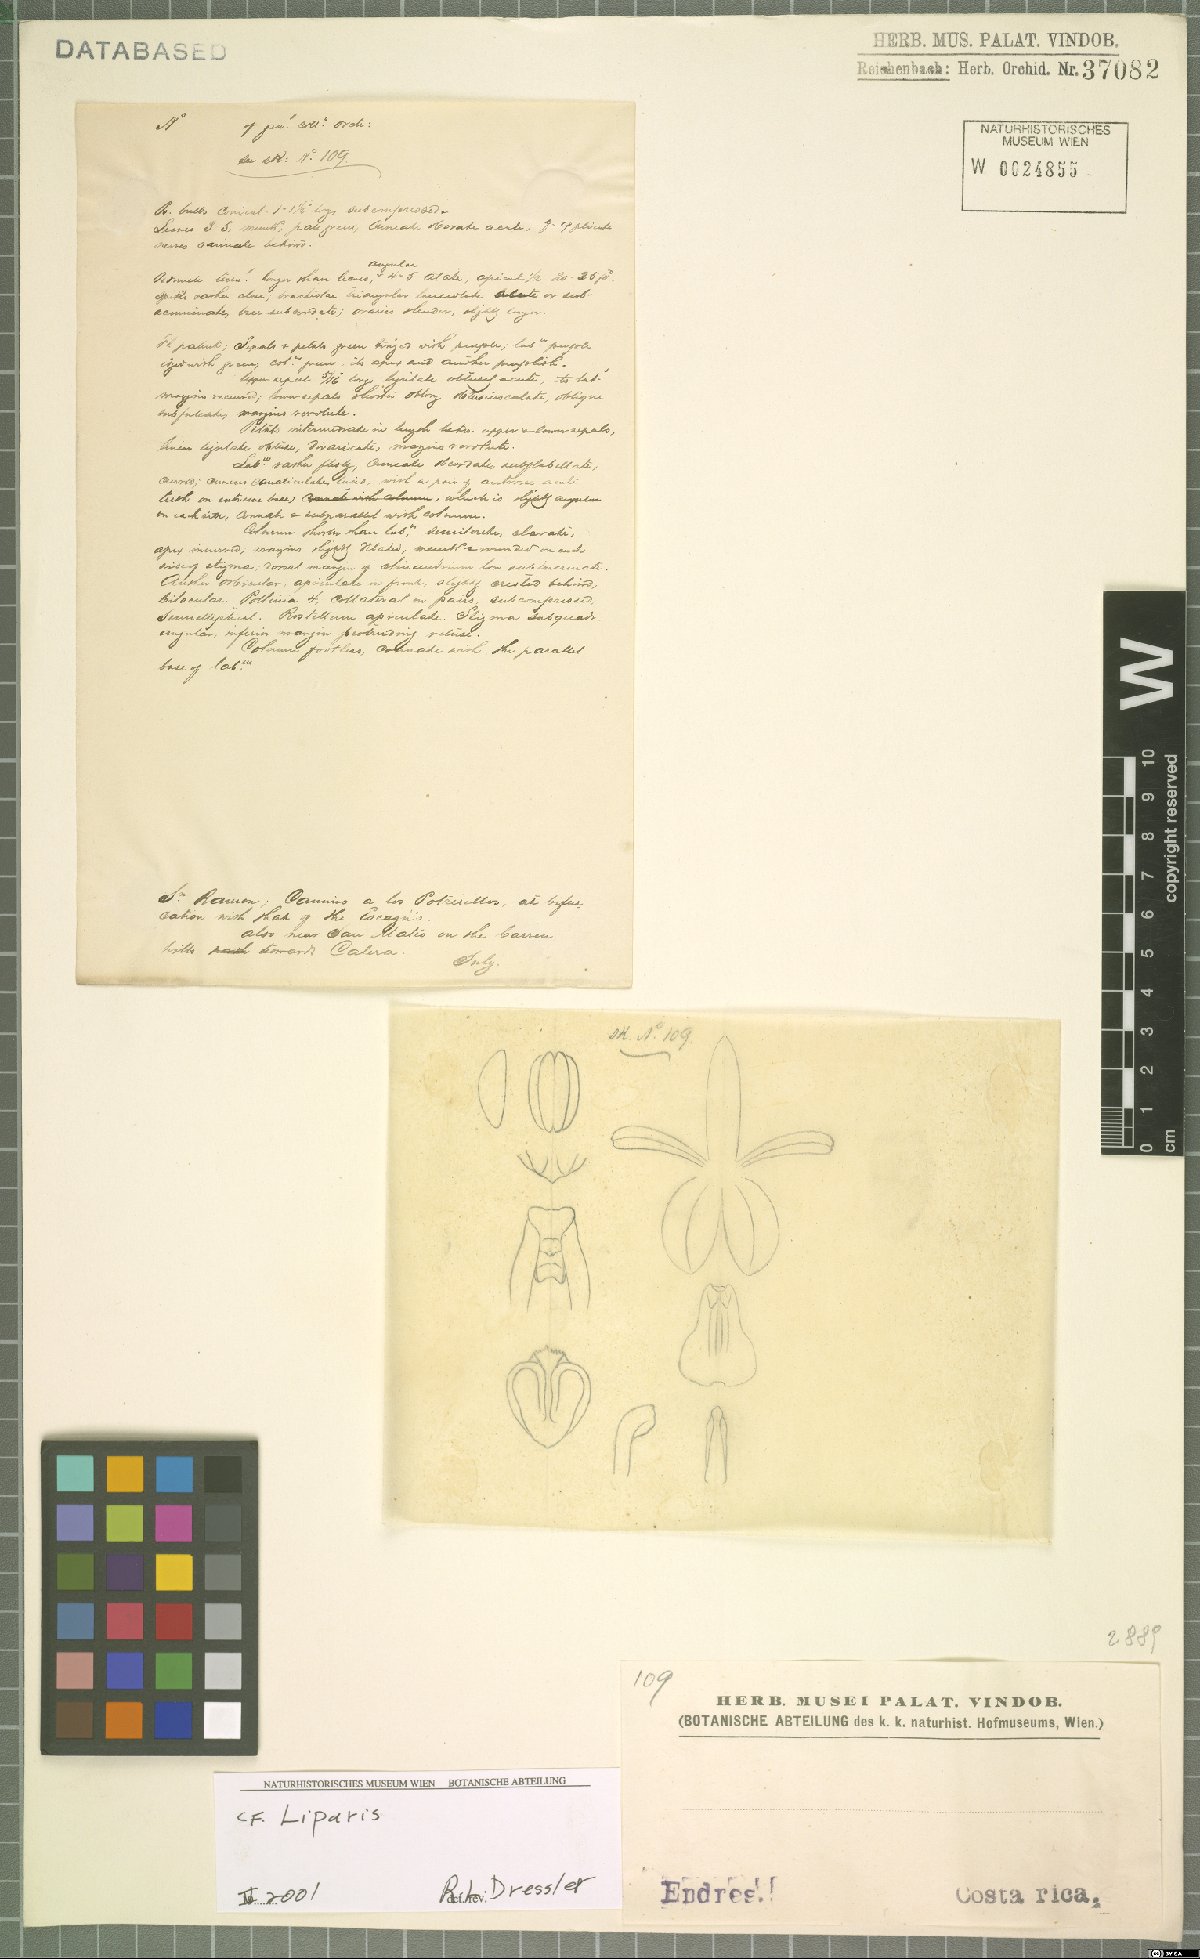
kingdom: Plantae
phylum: Tracheophyta
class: Liliopsida
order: Asparagales
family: Orchidaceae
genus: Liparis
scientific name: Liparis
